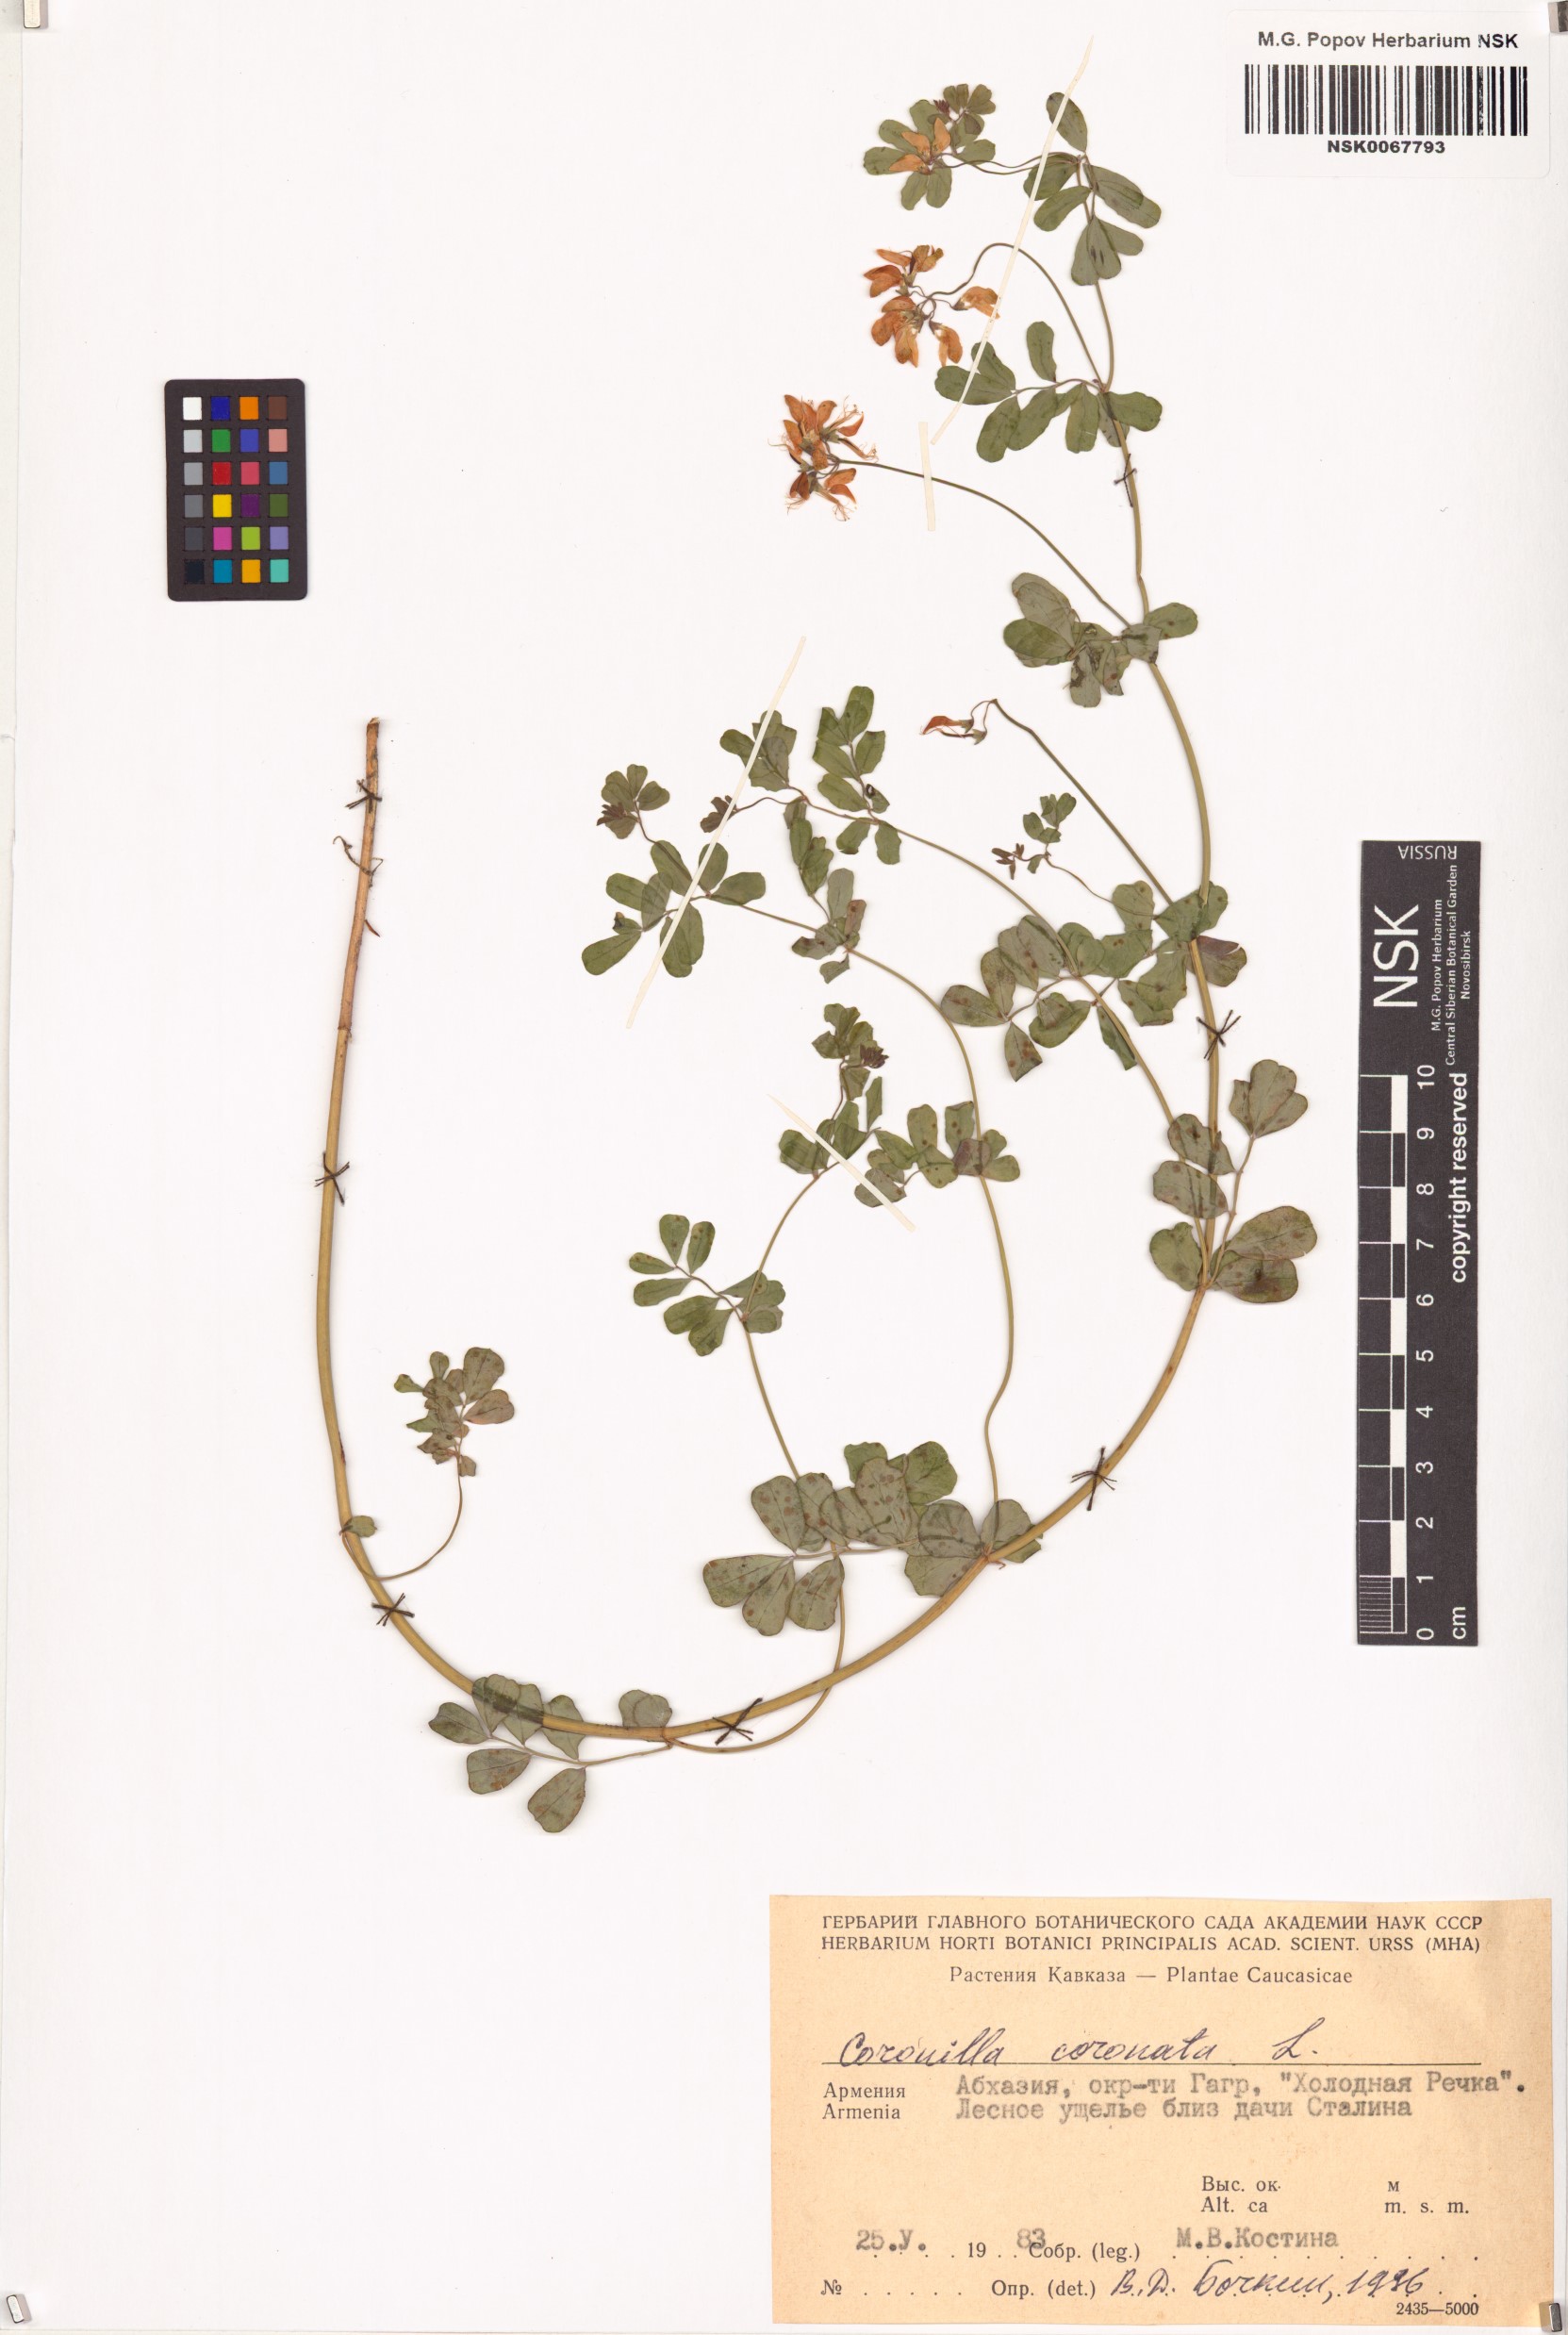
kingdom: Plantae
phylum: Tracheophyta
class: Magnoliopsida
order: Fabales
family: Fabaceae
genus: Coronilla
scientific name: Coronilla coronata
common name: Scorpion-vetch
